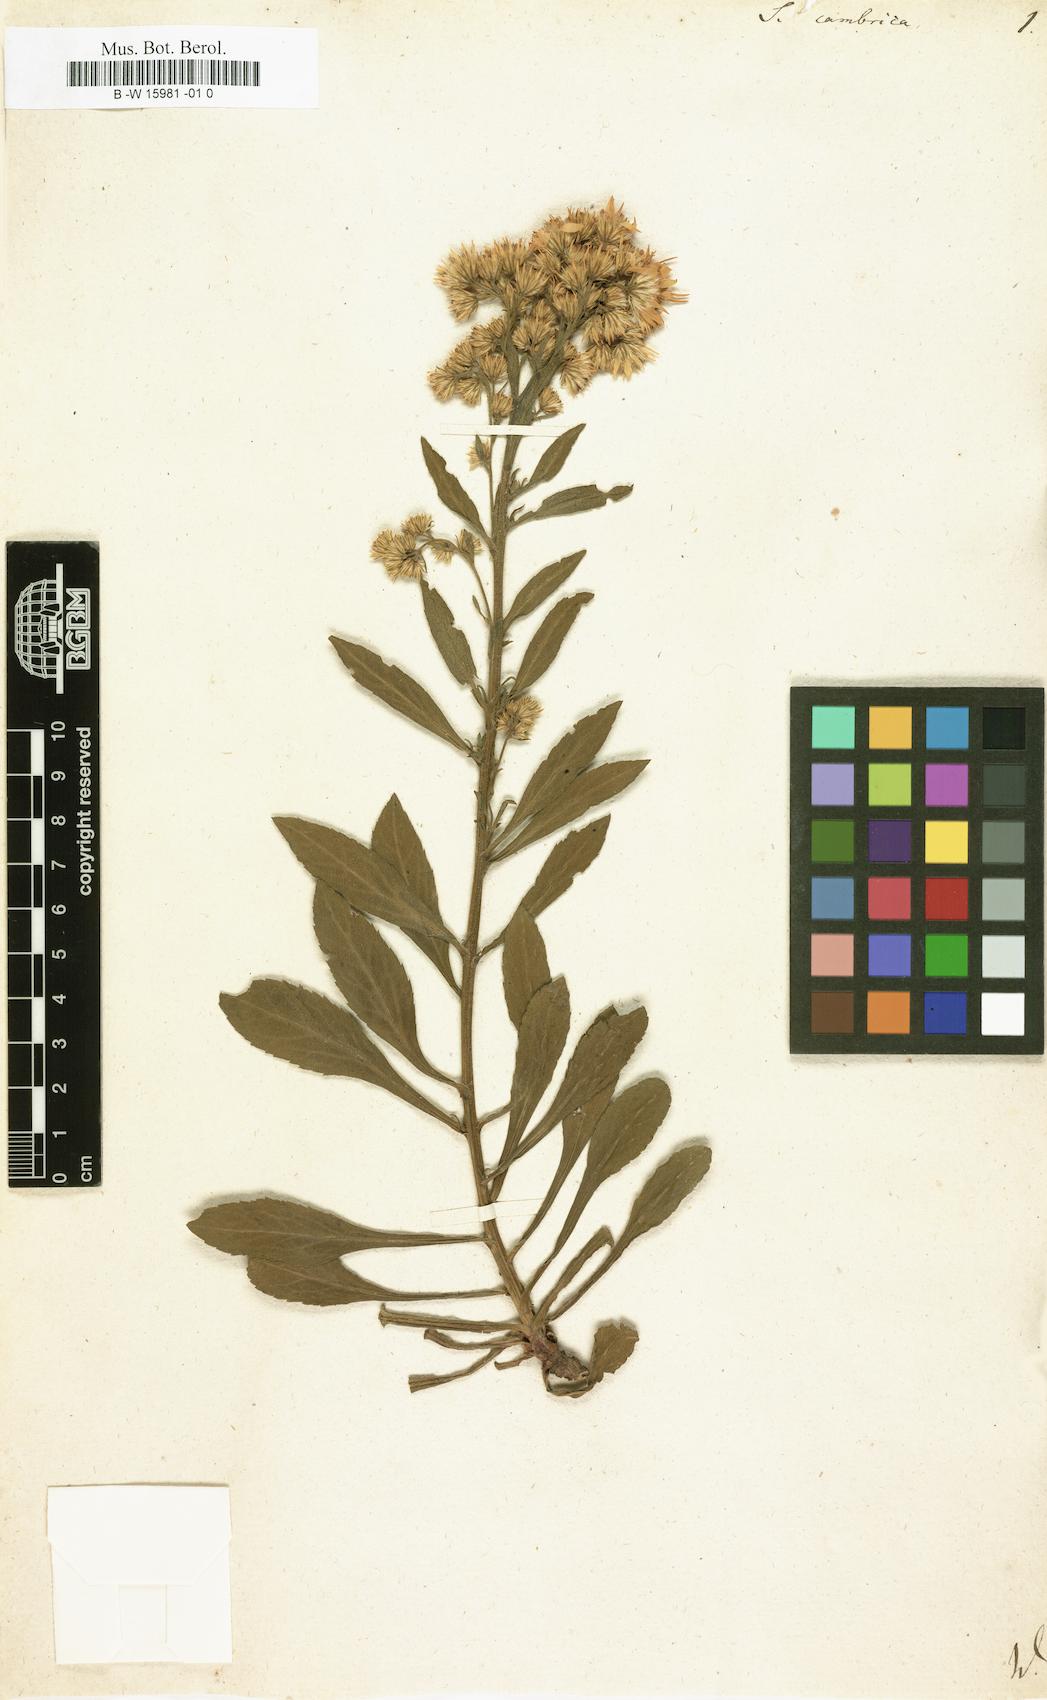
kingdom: Plantae
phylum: Tracheophyta
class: Magnoliopsida
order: Asterales
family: Asteraceae
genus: Solidago
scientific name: Solidago virgaurea
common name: Goldenrod
